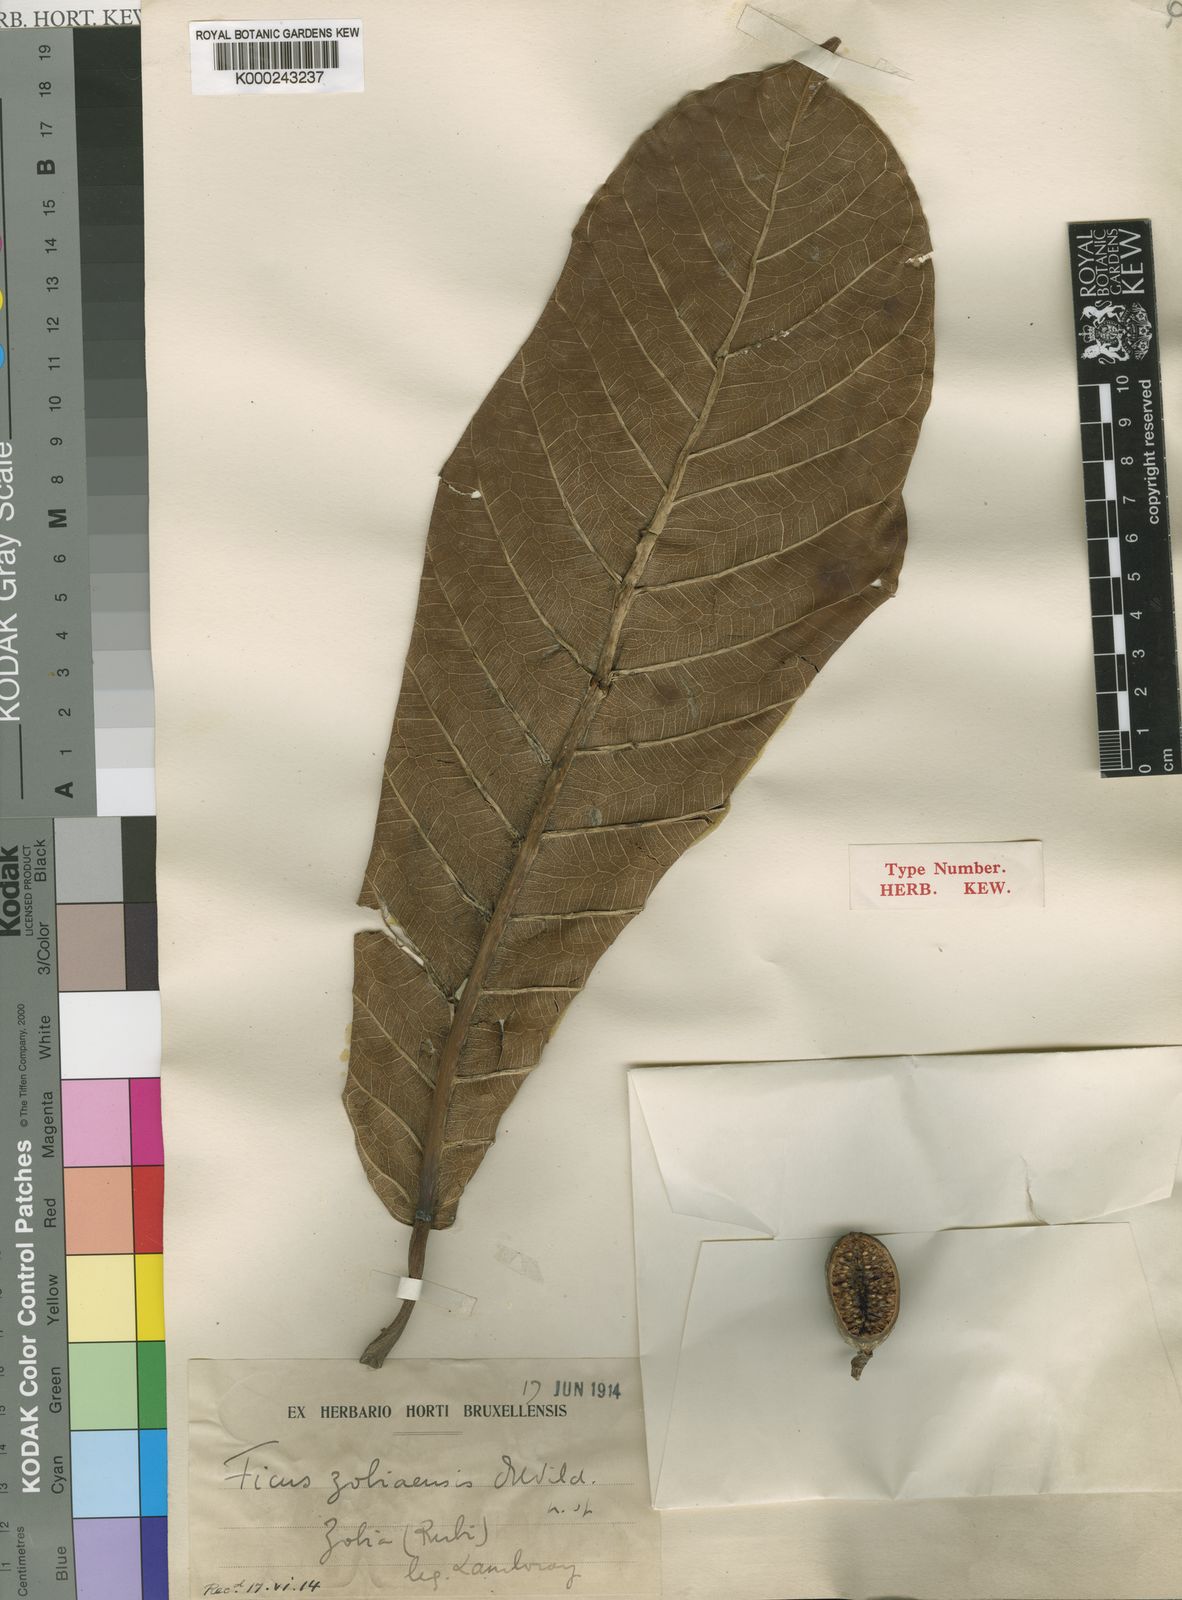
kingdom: Plantae
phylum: Tracheophyta
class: Magnoliopsida
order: Rosales
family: Moraceae
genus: Ficus
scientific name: Ficus saussureana
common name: Loquat-leaf fig
